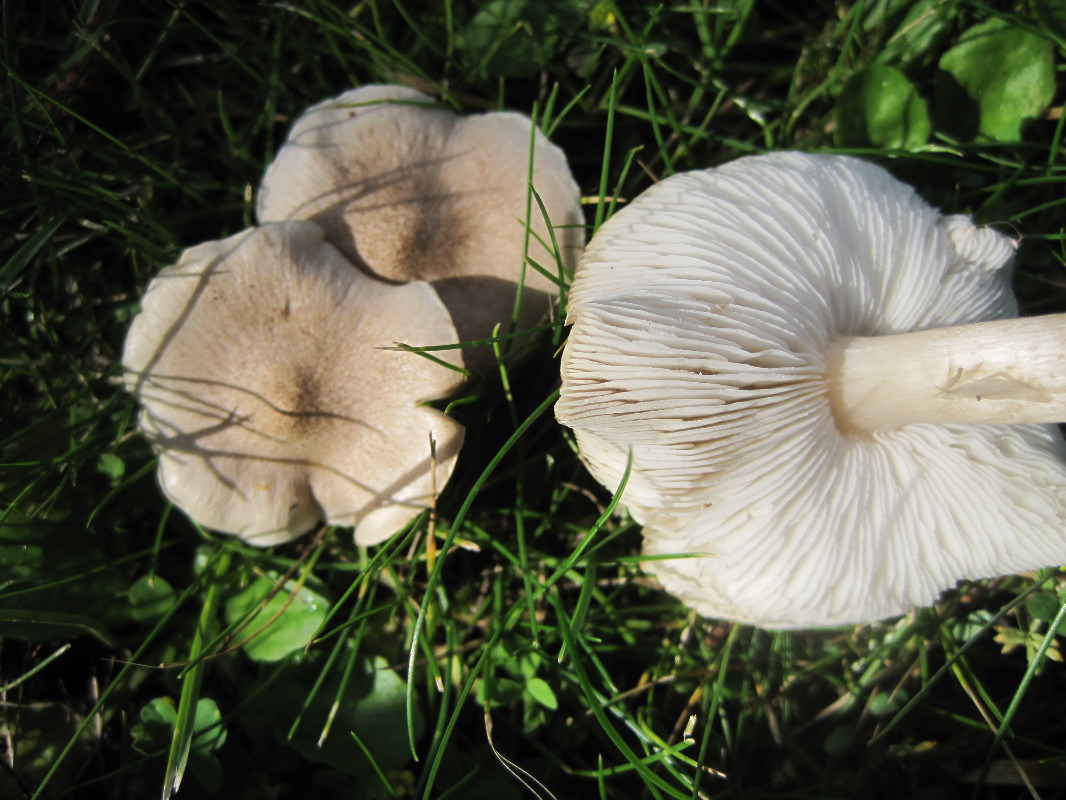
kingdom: Fungi
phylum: Basidiomycota
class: Agaricomycetes
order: Agaricales
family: Tricholomataceae
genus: Tricholoma
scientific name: Tricholoma argyraceum
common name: spids ridderhat
